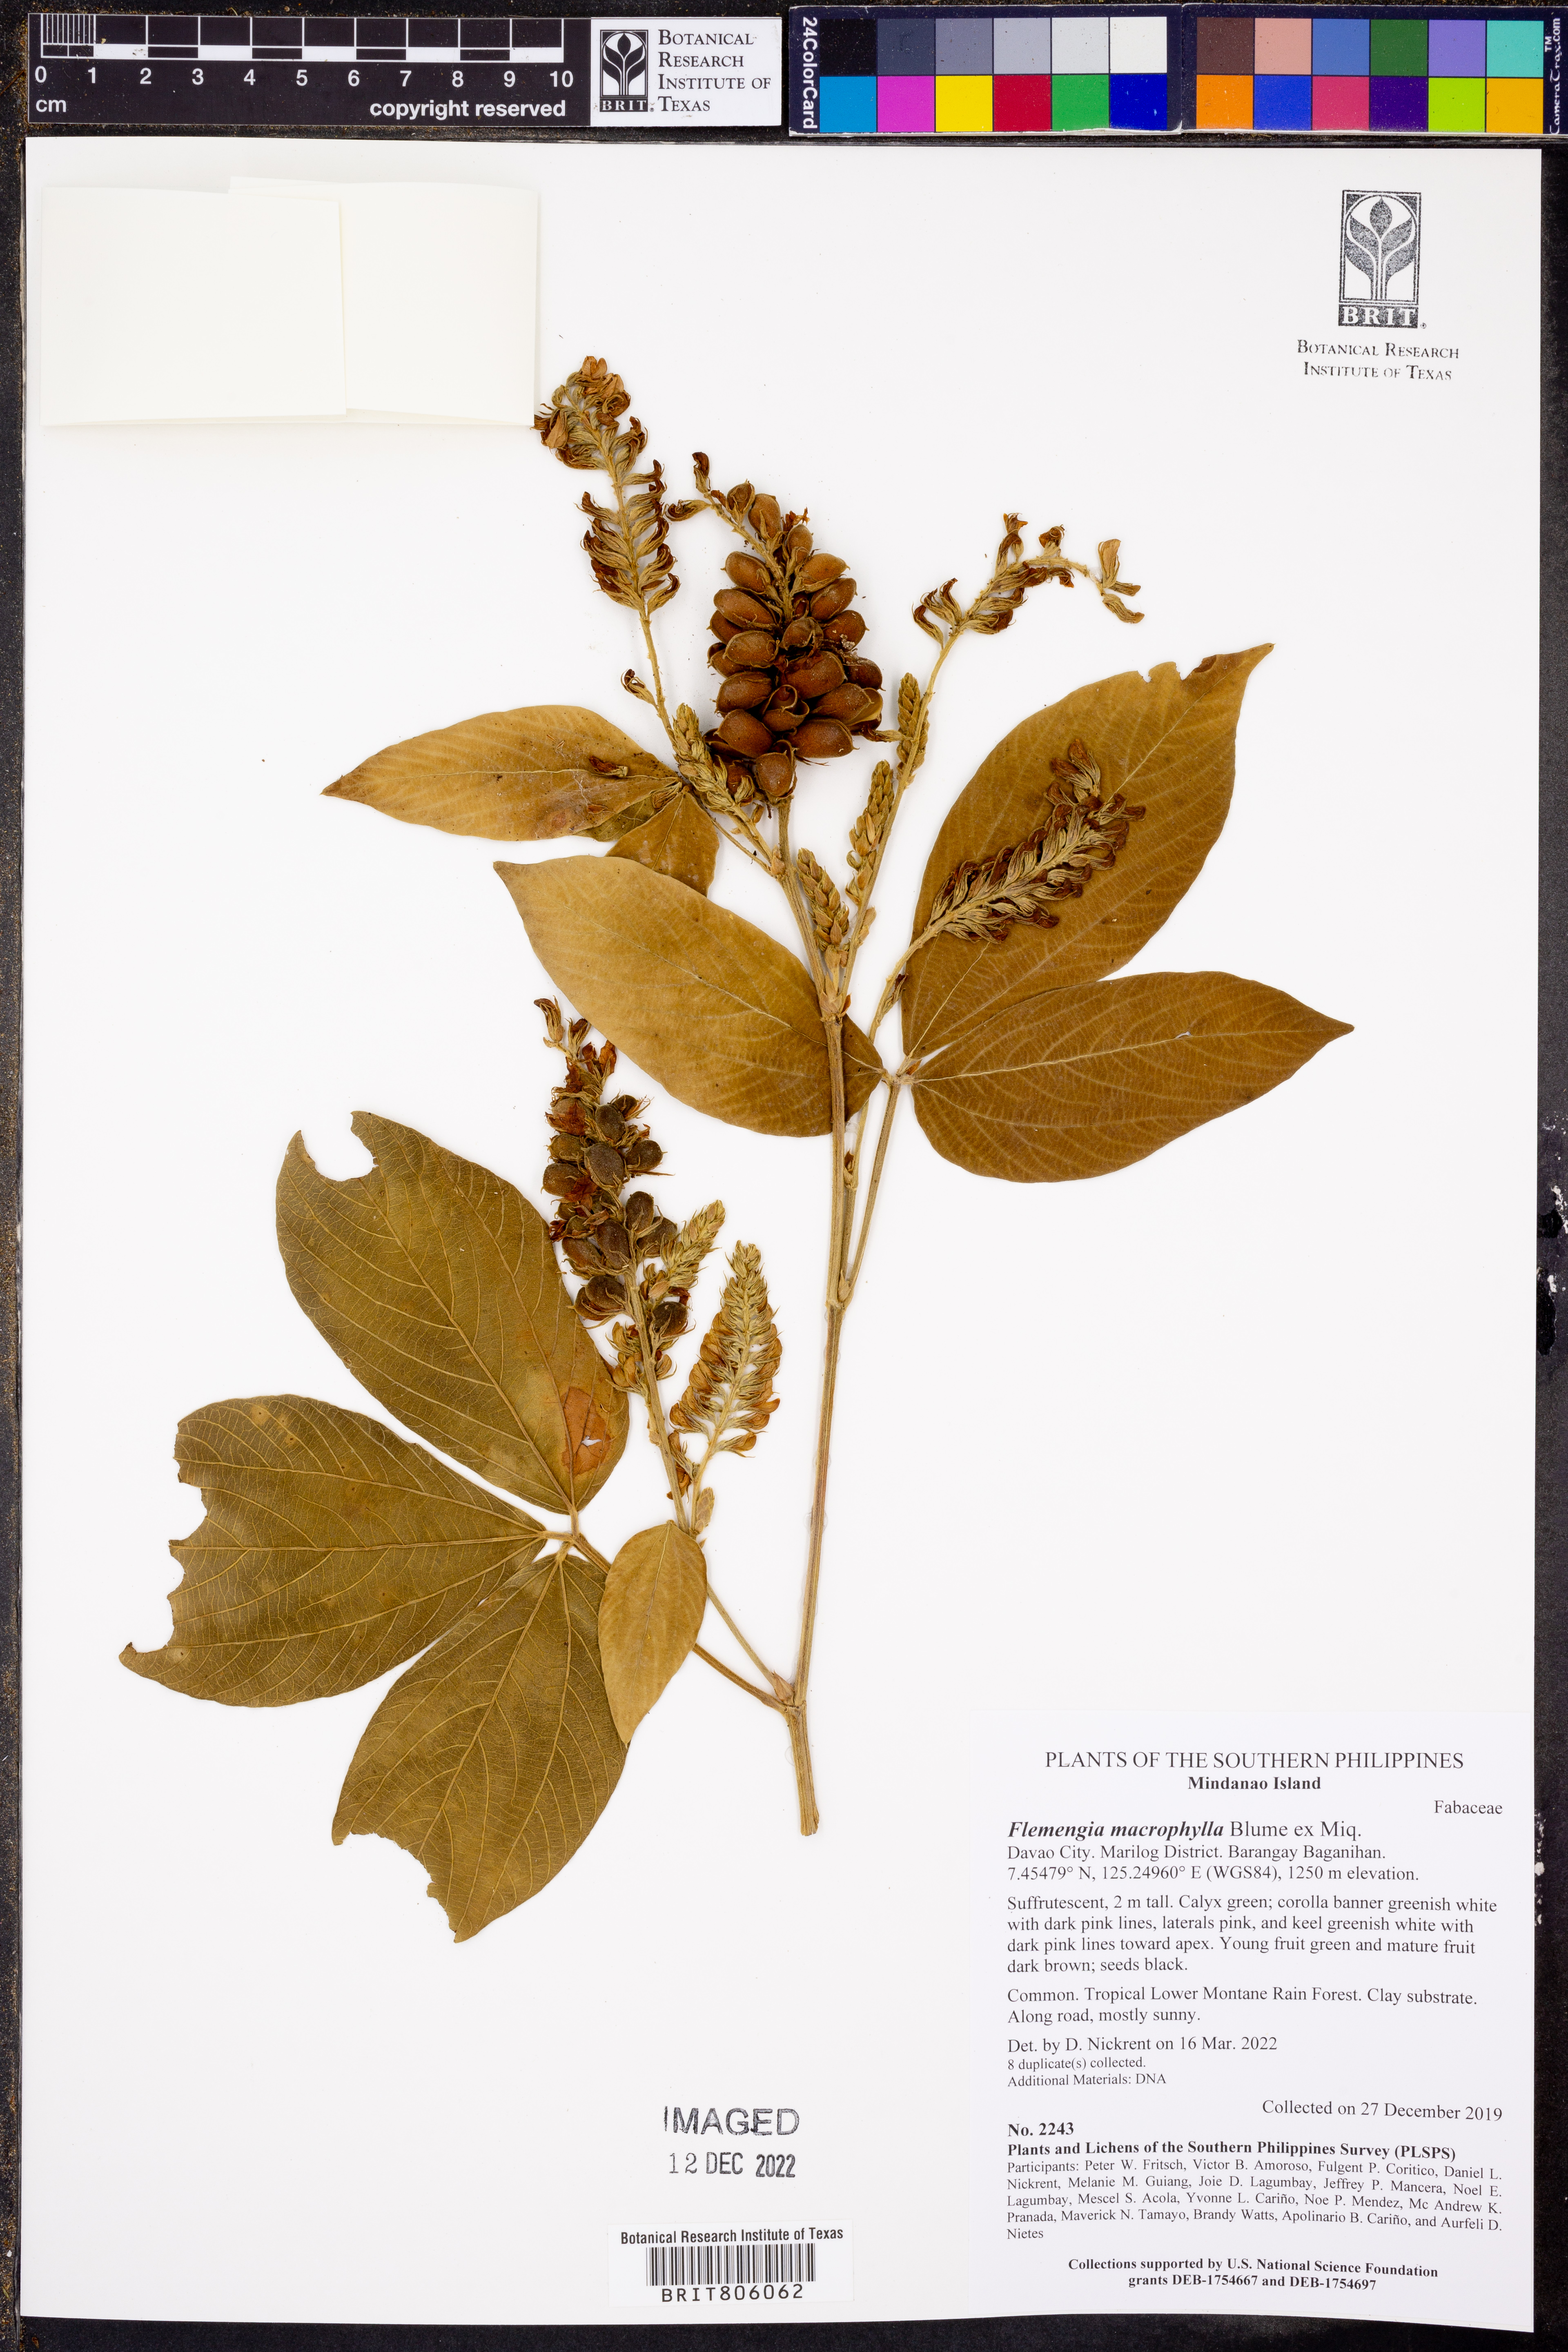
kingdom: Plantae
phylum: Tracheophyta
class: Magnoliopsida
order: Fabales
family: Fabaceae
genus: Flemingia
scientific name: Flemingia macrophylla
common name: Flemingia
